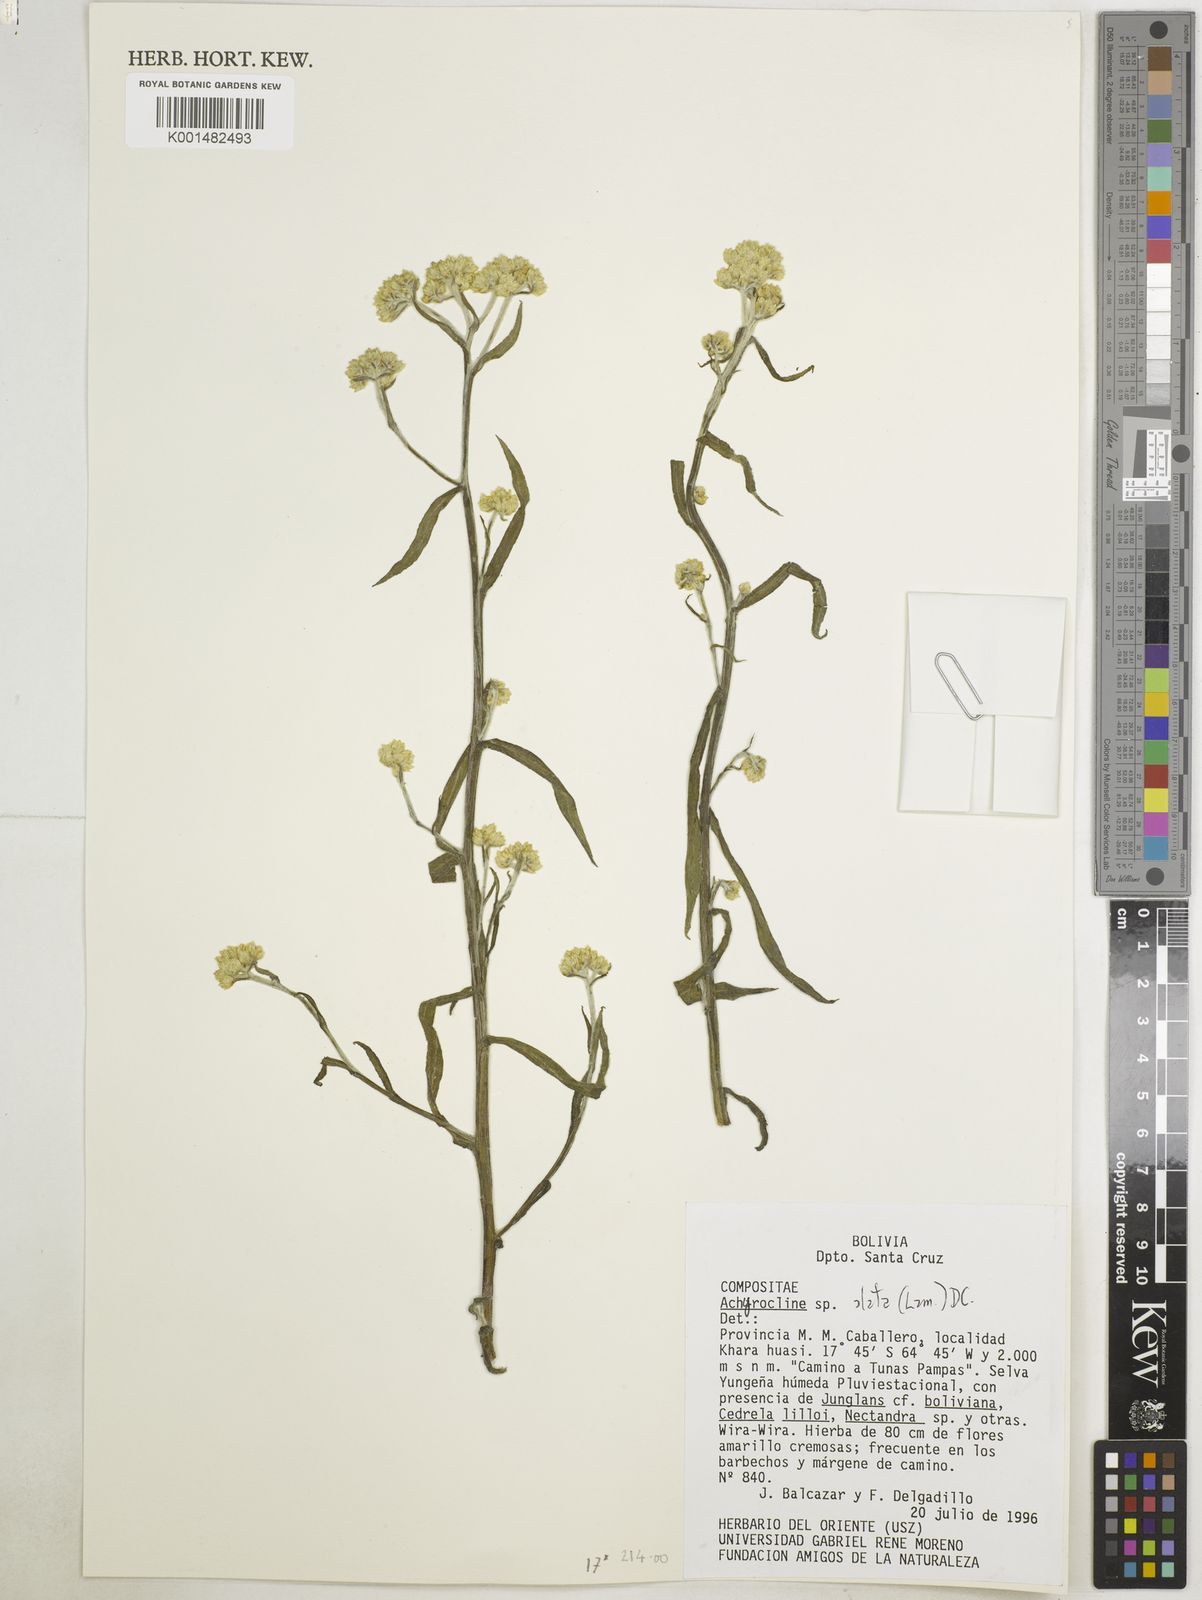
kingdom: Plantae
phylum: Tracheophyta
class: Magnoliopsida
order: Asterales
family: Asteraceae
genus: Achyrocline
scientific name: Achyrocline alata
